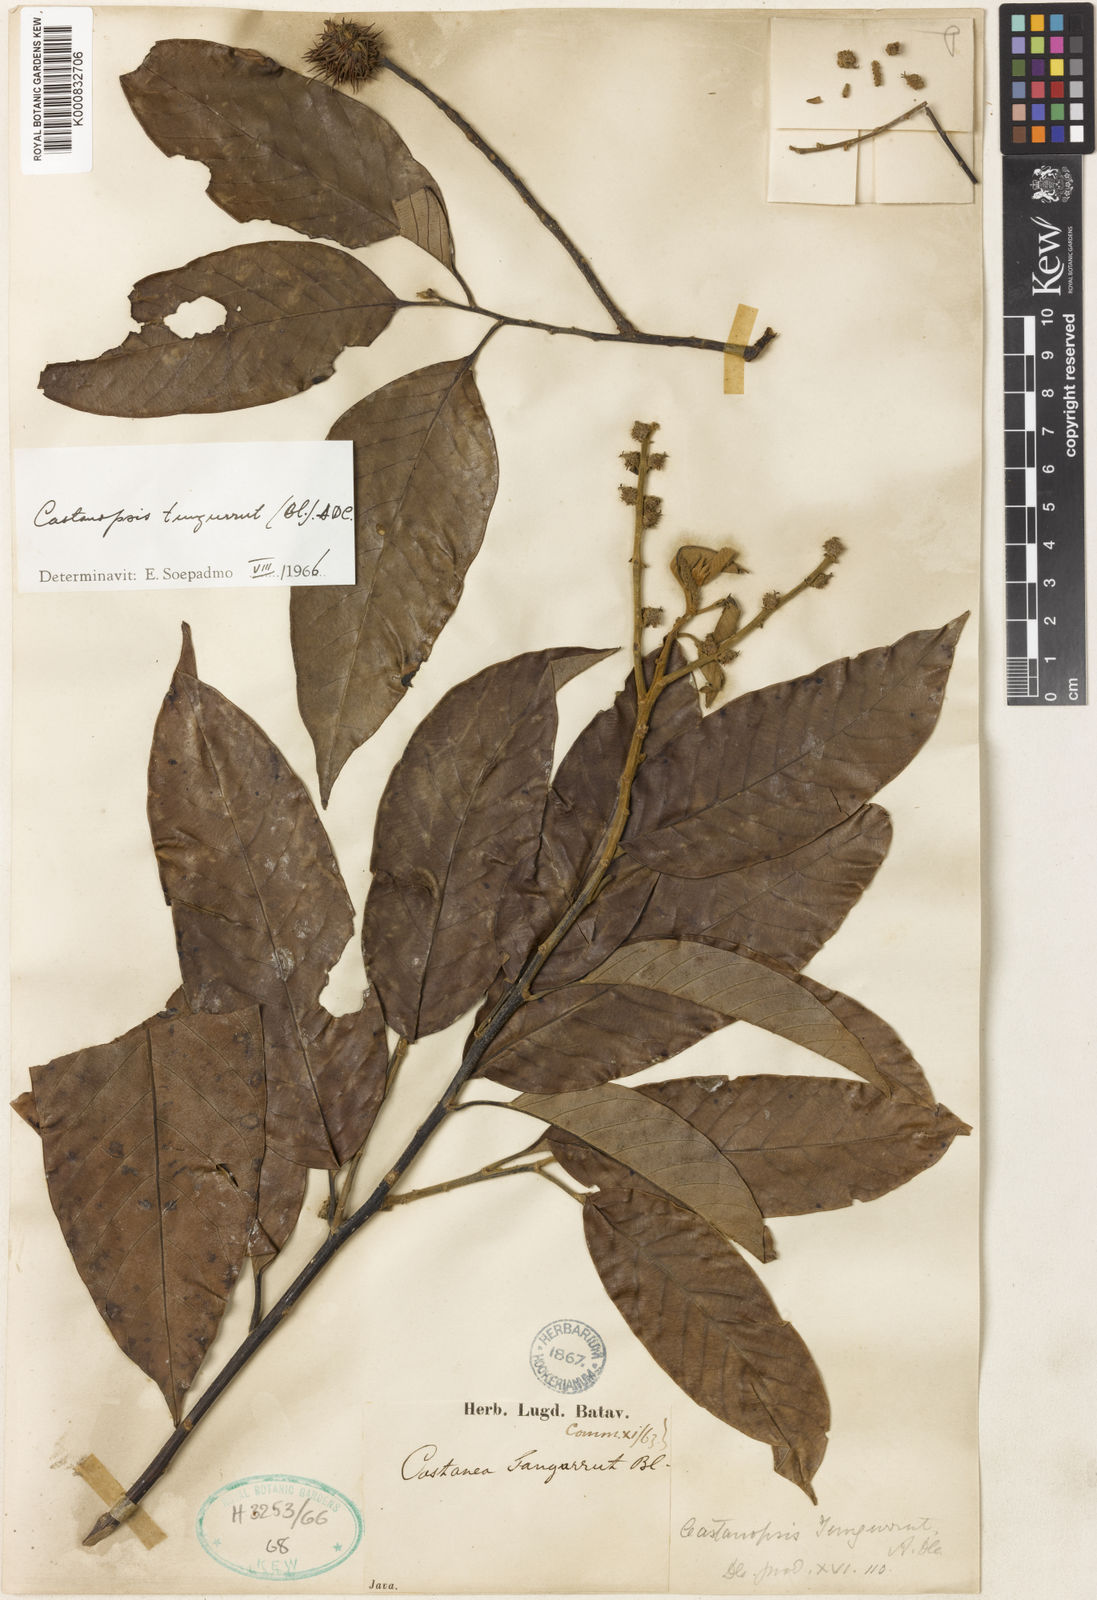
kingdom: Plantae
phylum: Tracheophyta
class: Magnoliopsida
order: Fagales
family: Fagaceae
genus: Castanopsis
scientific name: Castanopsis tungurrut
